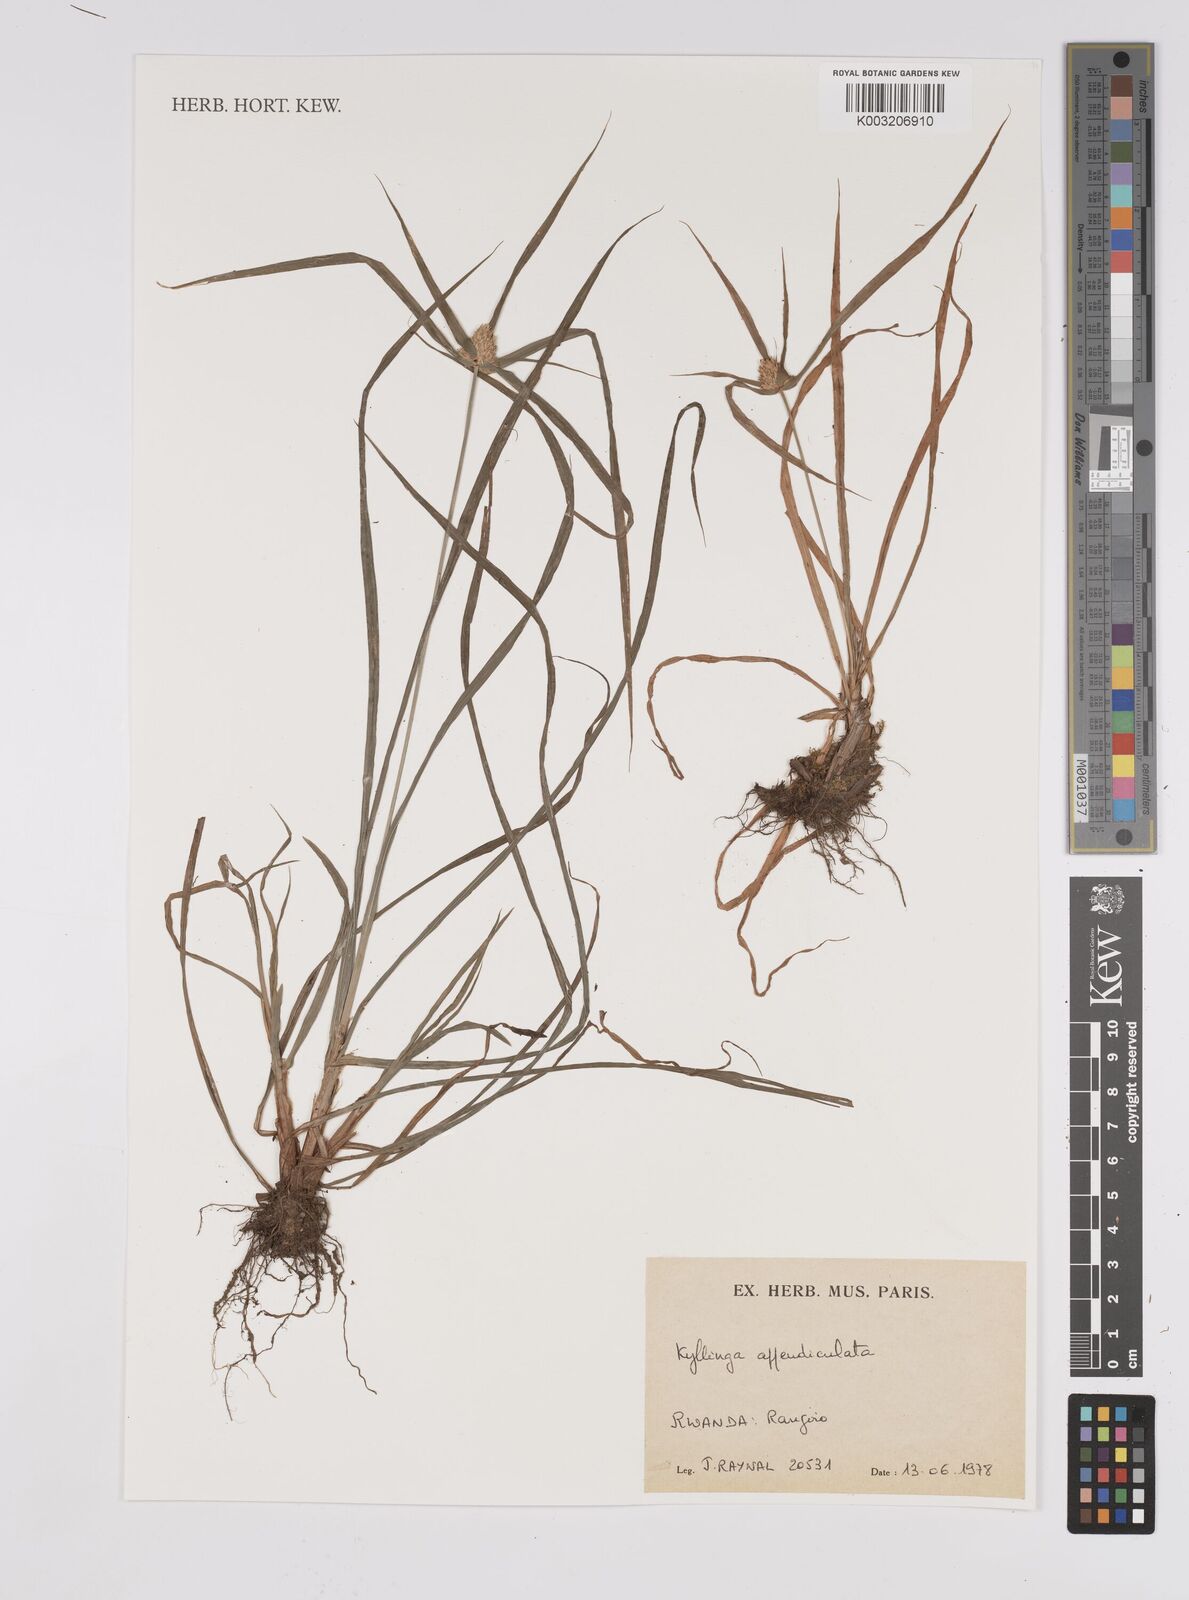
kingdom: Plantae
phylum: Tracheophyta
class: Liliopsida
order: Poales
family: Cyperaceae
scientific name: Cyperaceae
